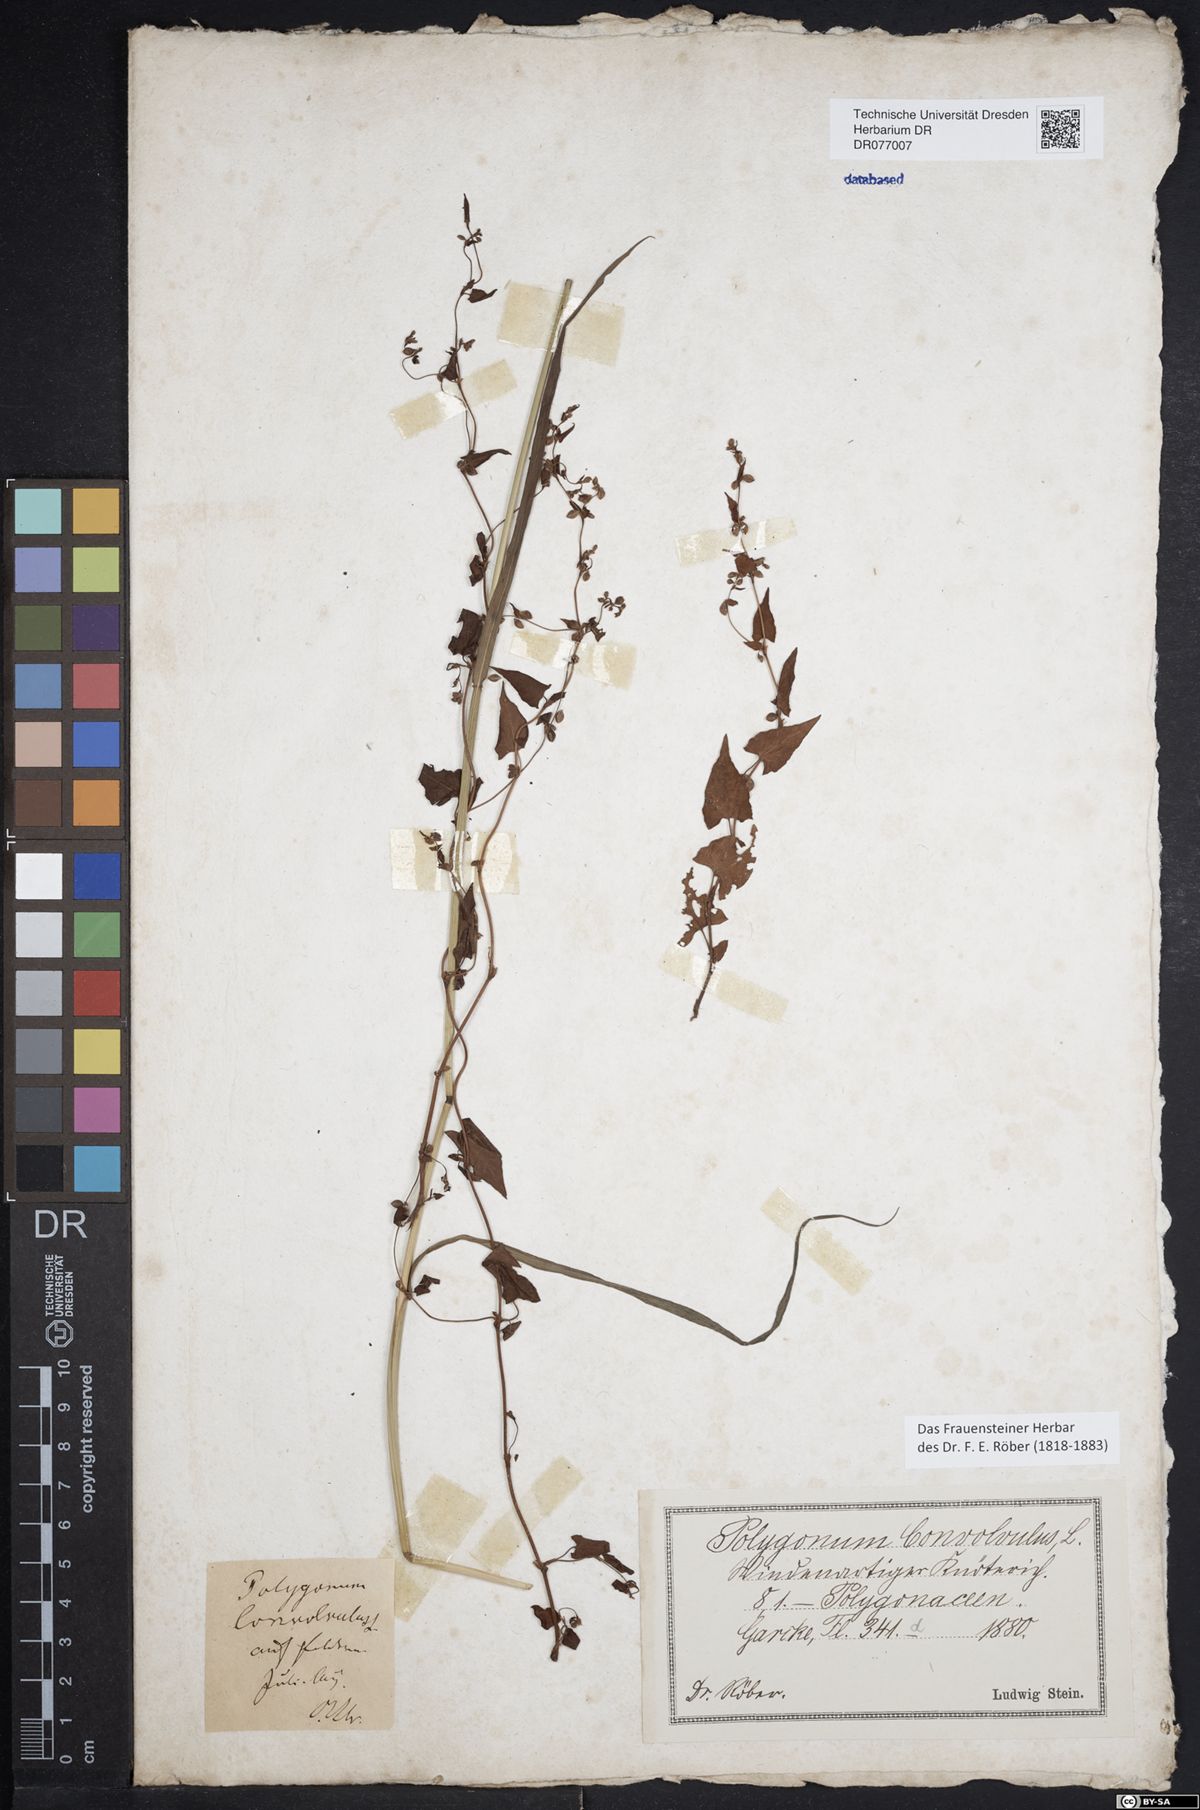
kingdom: Plantae
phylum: Tracheophyta
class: Magnoliopsida
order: Caryophyllales
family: Polygonaceae
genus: Fallopia
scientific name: Fallopia convolvulus
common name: Black bindweed
